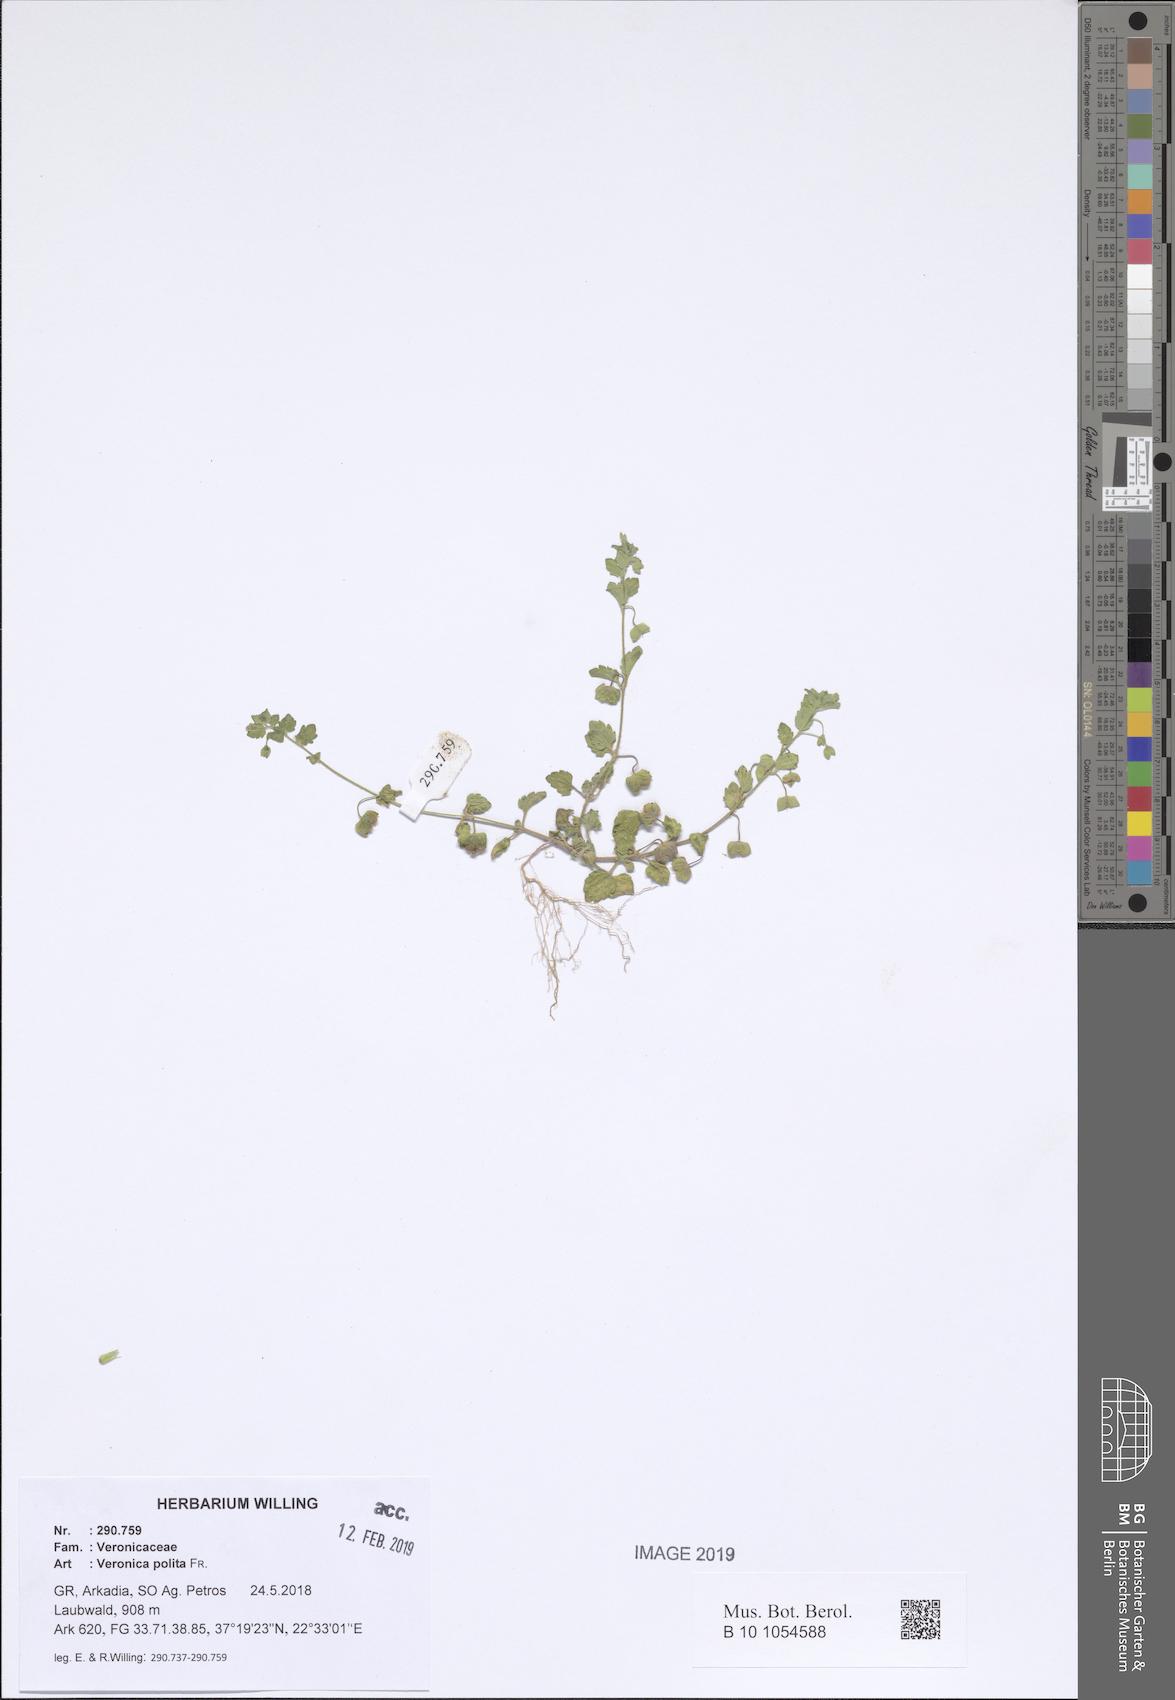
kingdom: Plantae
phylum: Tracheophyta
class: Magnoliopsida
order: Lamiales
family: Plantaginaceae
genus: Veronica
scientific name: Veronica polita
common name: Grey field-speedwell
